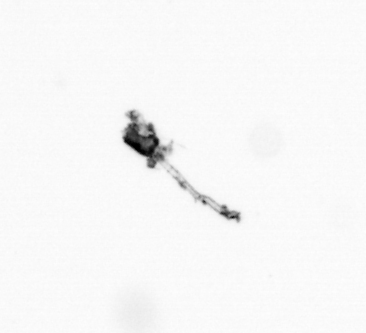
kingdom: Animalia
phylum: Arthropoda
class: Copepoda
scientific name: Copepoda
